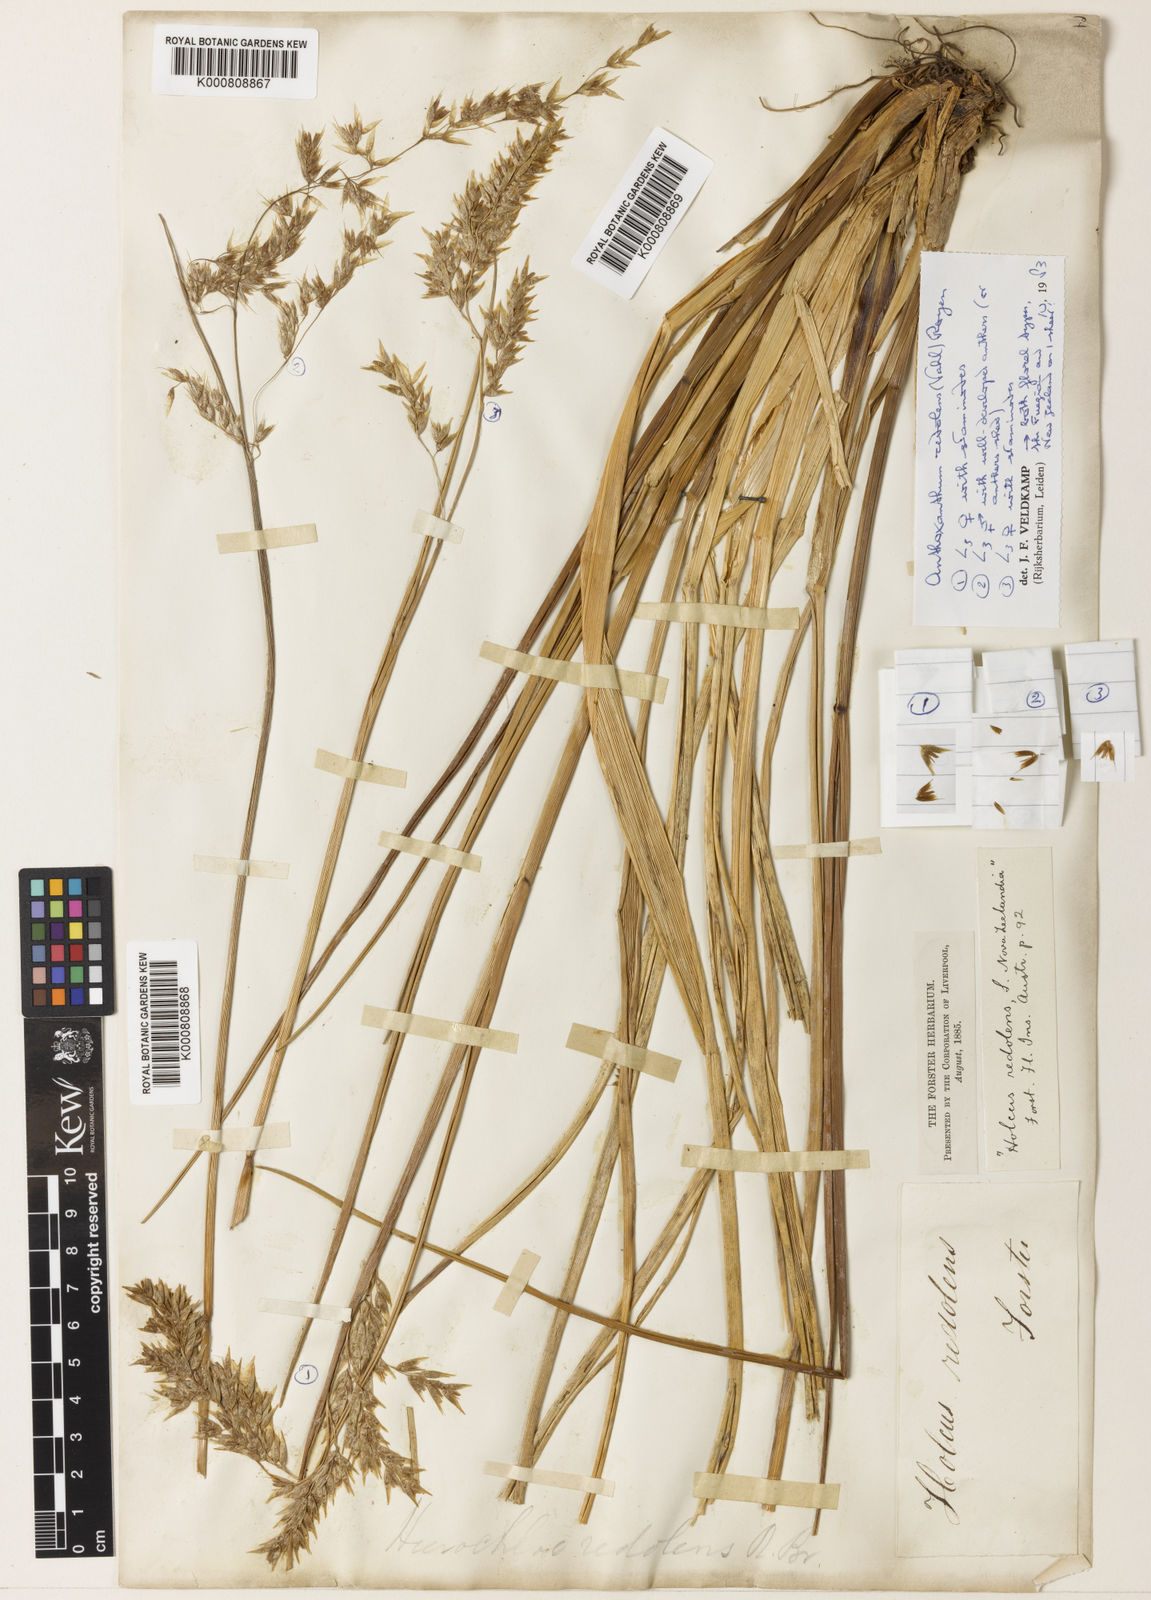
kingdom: Plantae
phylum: Tracheophyta
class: Liliopsida
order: Poales
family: Poaceae
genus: Hierochloe
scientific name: Hierochloe
